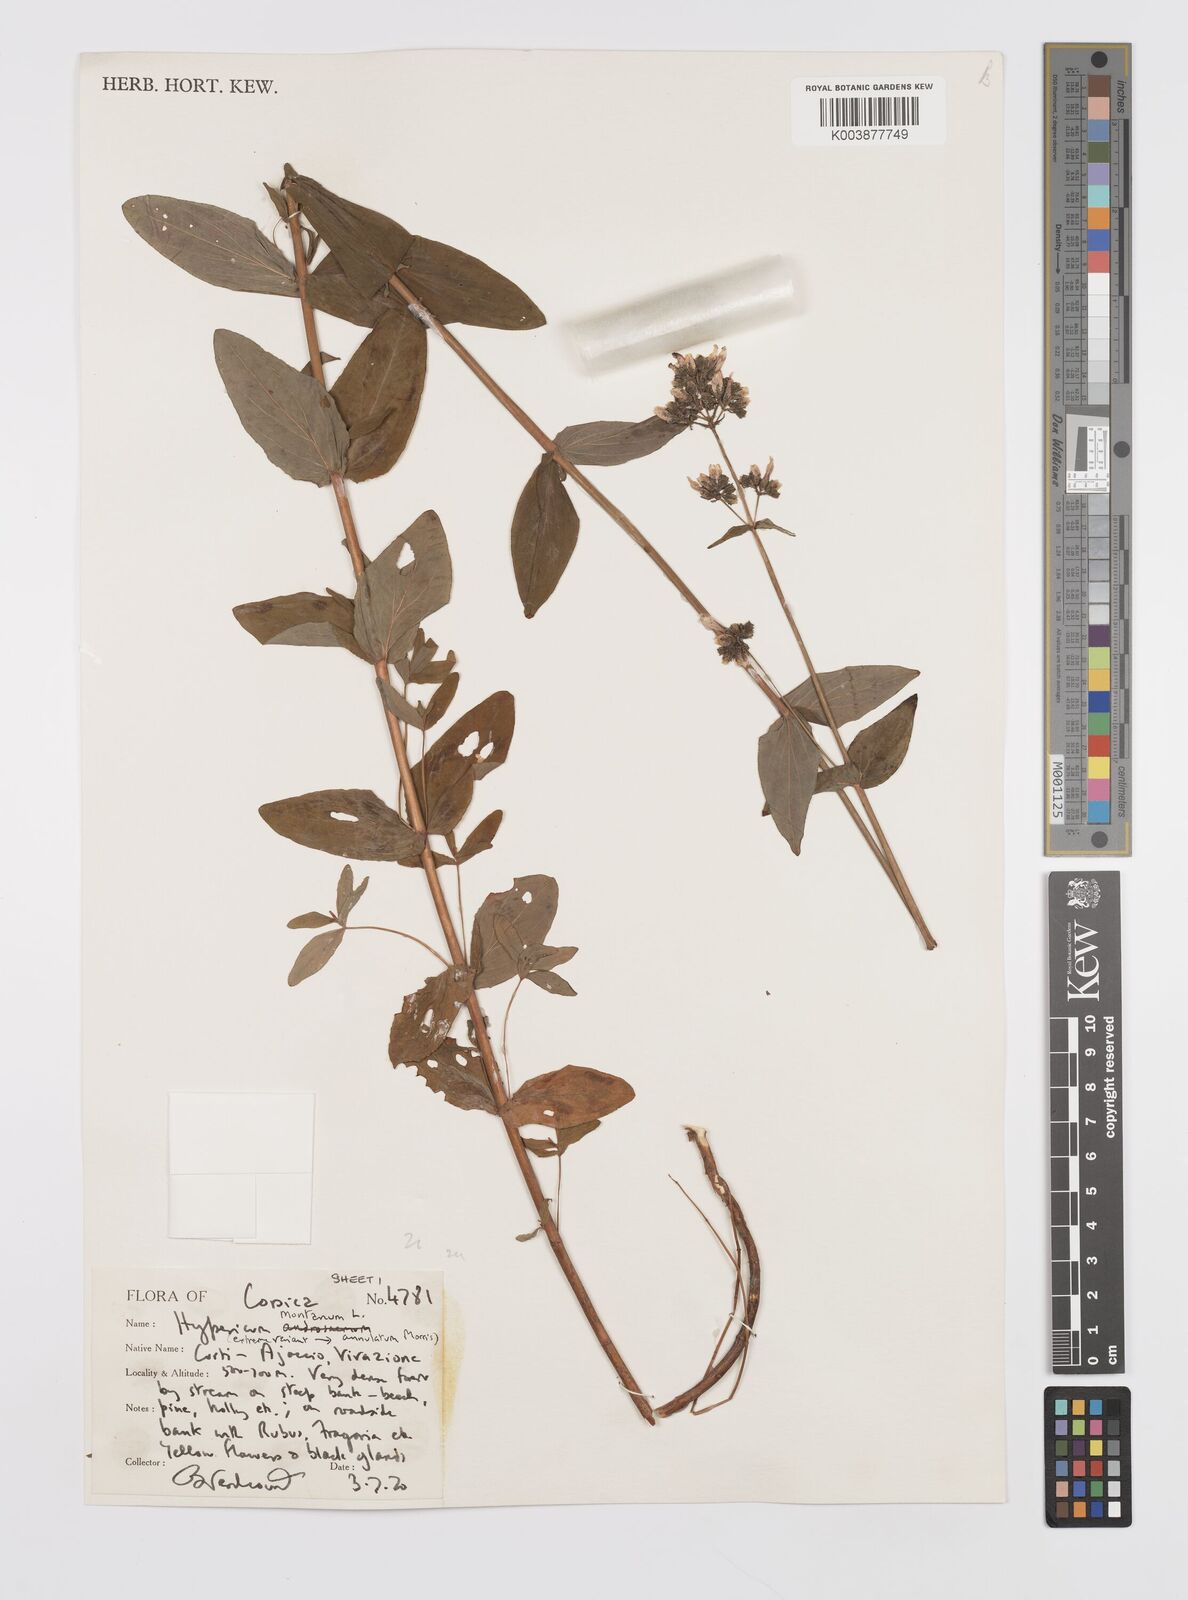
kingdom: Plantae
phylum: Tracheophyta
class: Magnoliopsida
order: Malpighiales
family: Hypericaceae
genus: Hypericum
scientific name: Hypericum montanum
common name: Pale st. john's-wort
